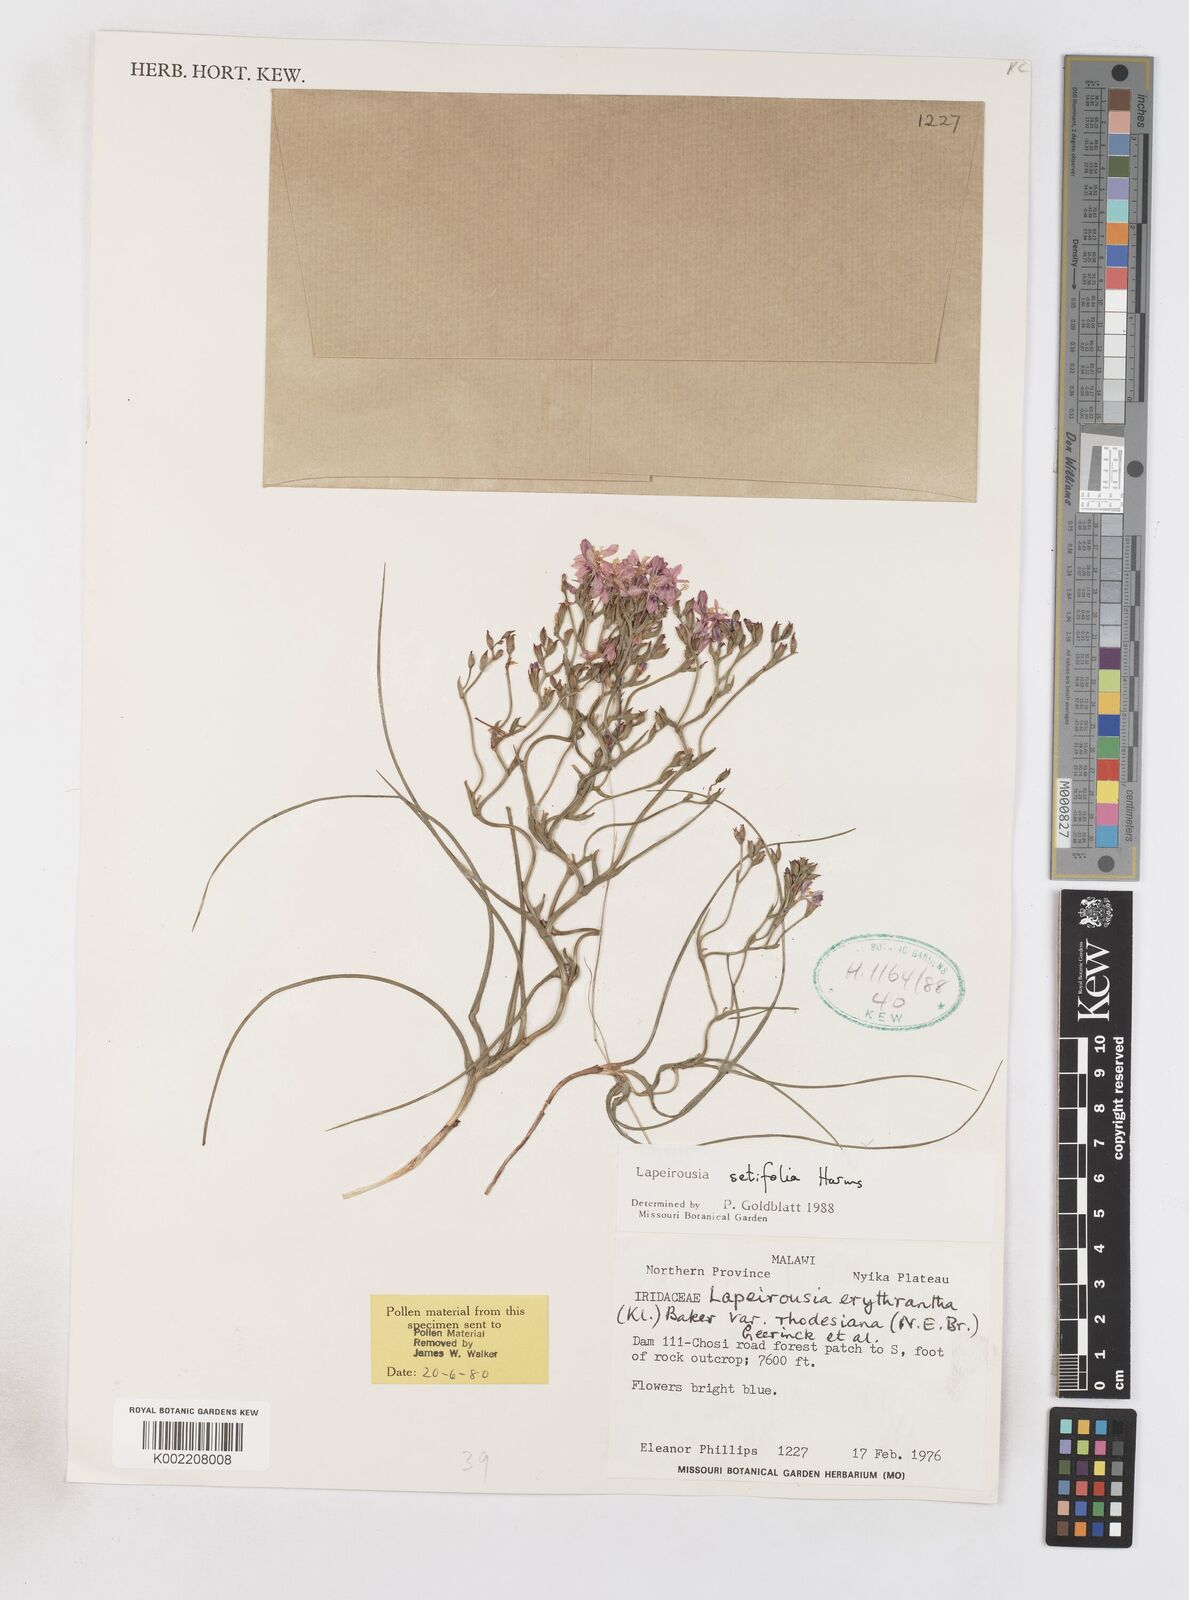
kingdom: Plantae
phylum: Tracheophyta
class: Liliopsida
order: Asparagales
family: Iridaceae
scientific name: Iridaceae
